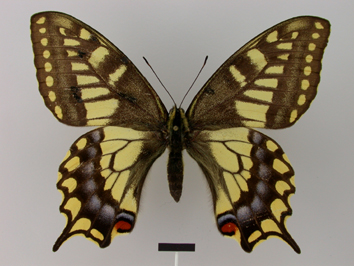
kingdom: Animalia
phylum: Arthropoda
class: Insecta
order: Lepidoptera
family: Papilionidae
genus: Papilio
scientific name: Papilio machaon
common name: Swallowtail
